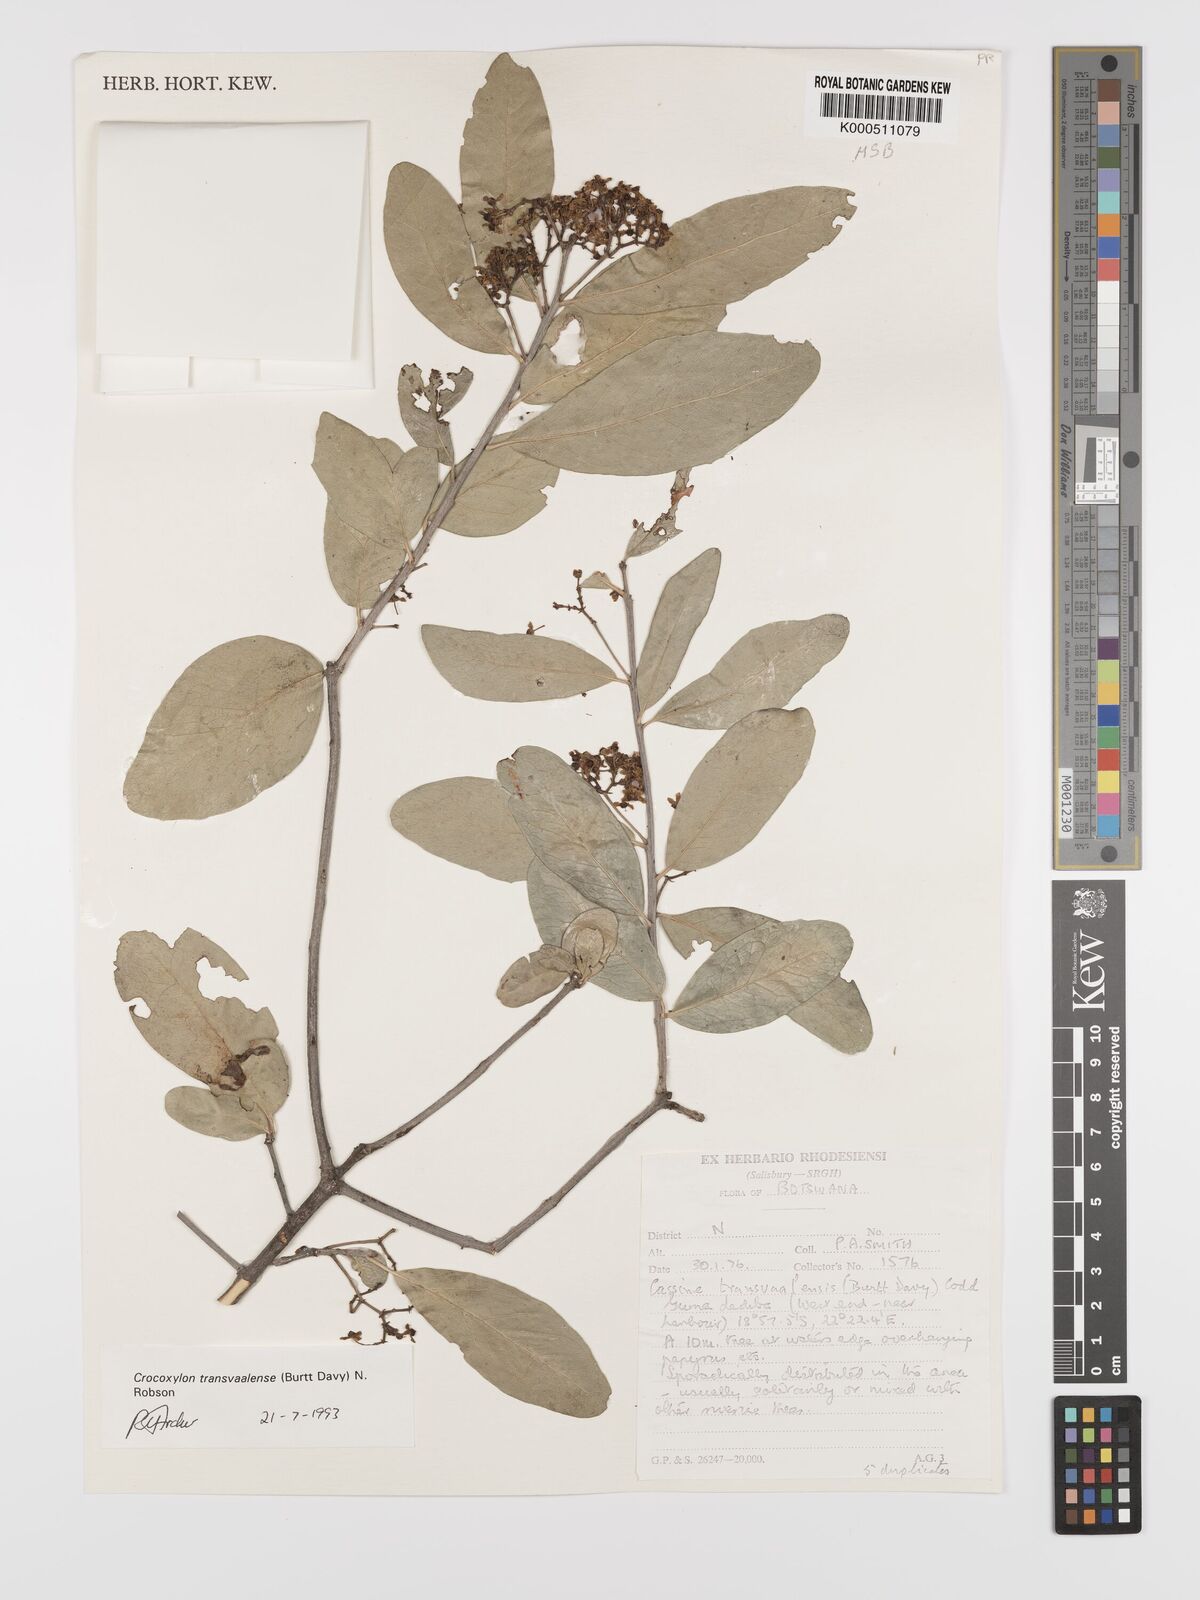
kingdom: Plantae
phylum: Tracheophyta
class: Magnoliopsida
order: Celastrales
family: Celastraceae
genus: Elaeodendron
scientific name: Elaeodendron transvaalense
